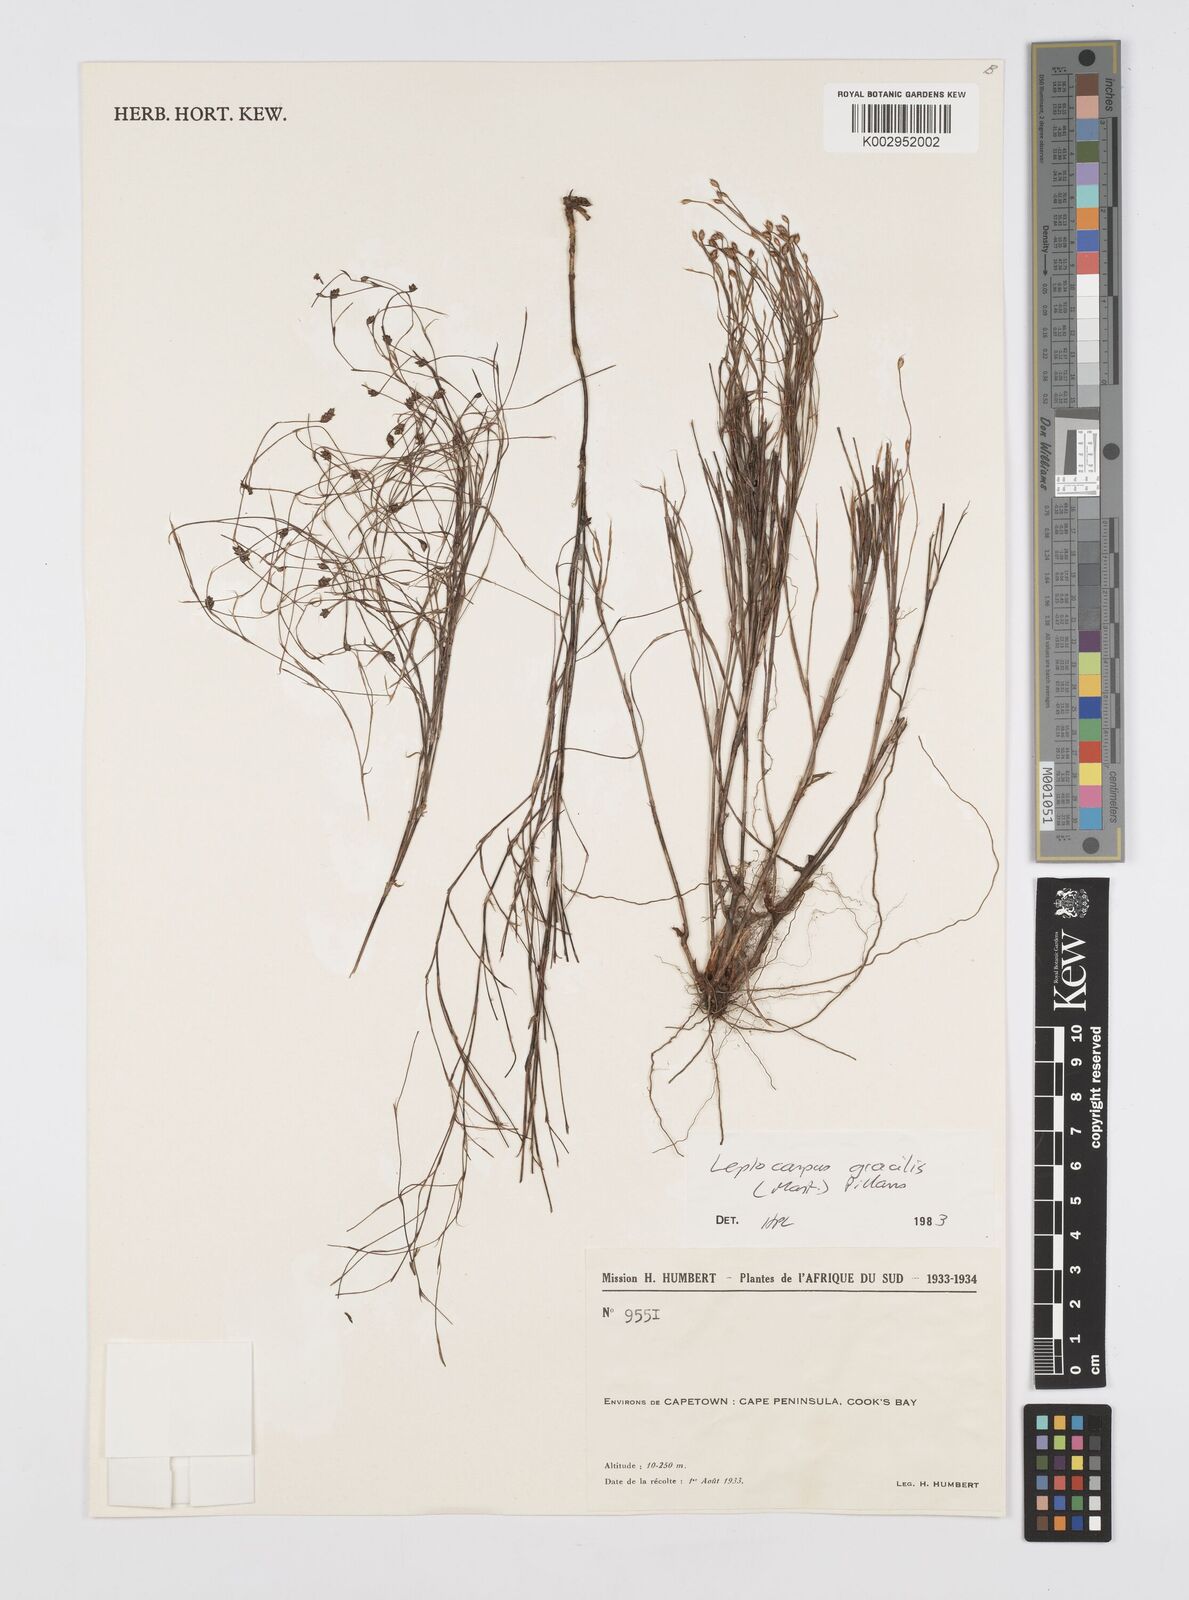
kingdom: Plantae
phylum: Tracheophyta
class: Liliopsida
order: Poales
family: Restionaceae
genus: Baloskion
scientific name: Baloskion gracile
